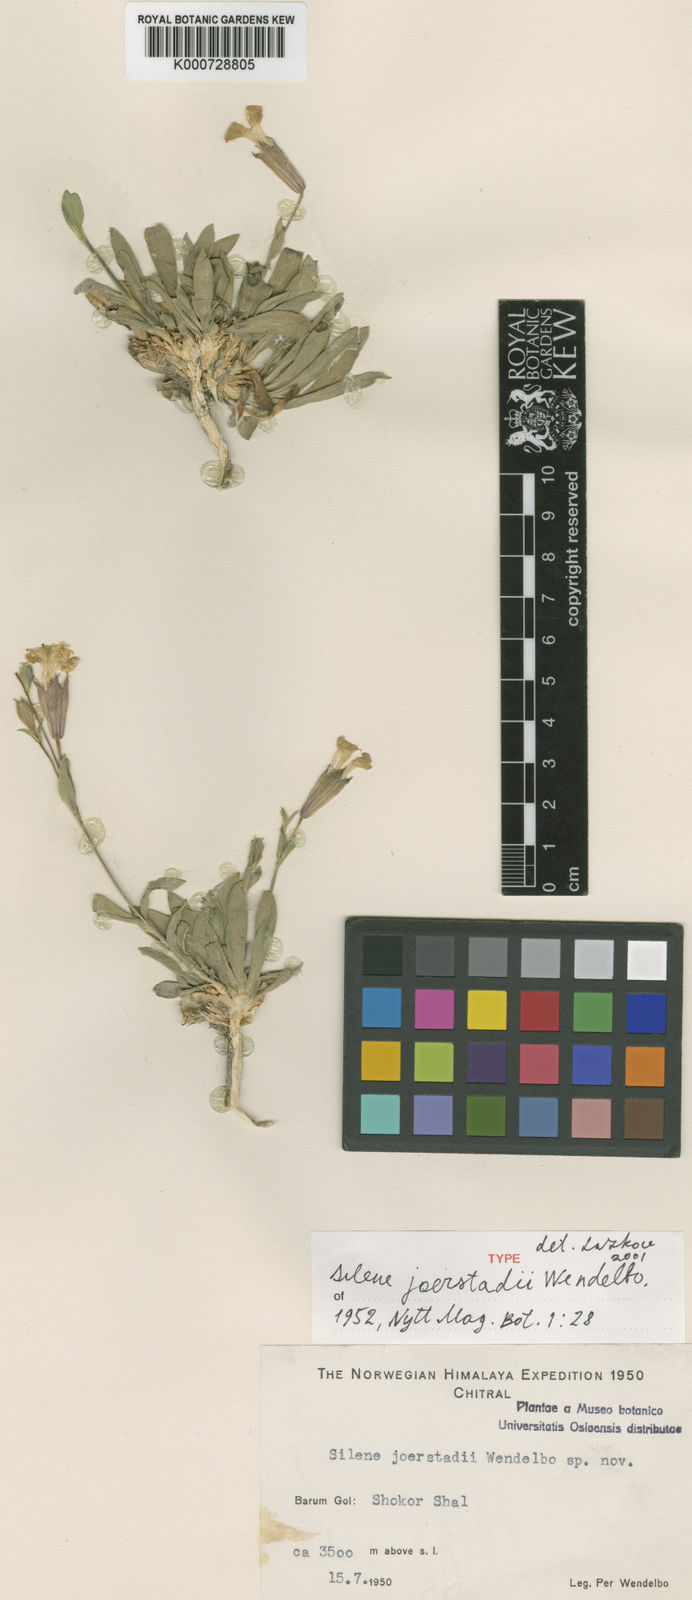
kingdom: Plantae
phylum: Tracheophyta
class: Magnoliopsida
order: Caryophyllales
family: Caryophyllaceae
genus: Silene
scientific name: Silene joerstadii
